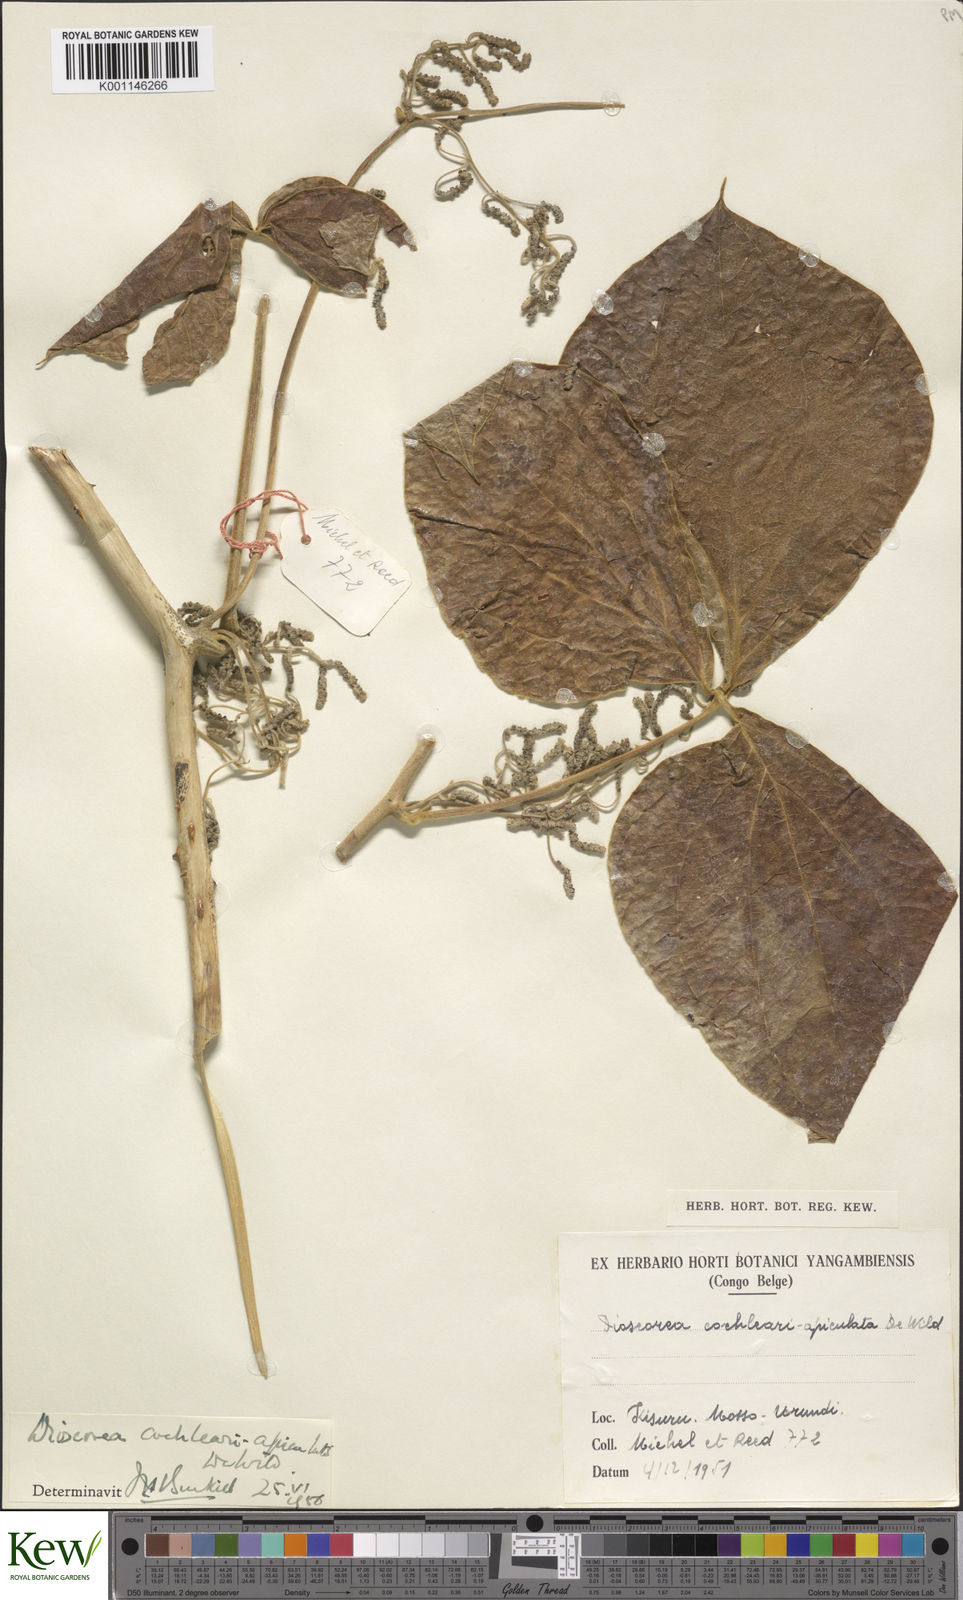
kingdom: Plantae
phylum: Tracheophyta
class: Liliopsida
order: Dioscoreales
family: Dioscoreaceae
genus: Dioscorea
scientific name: Dioscorea cochleariapiculata
